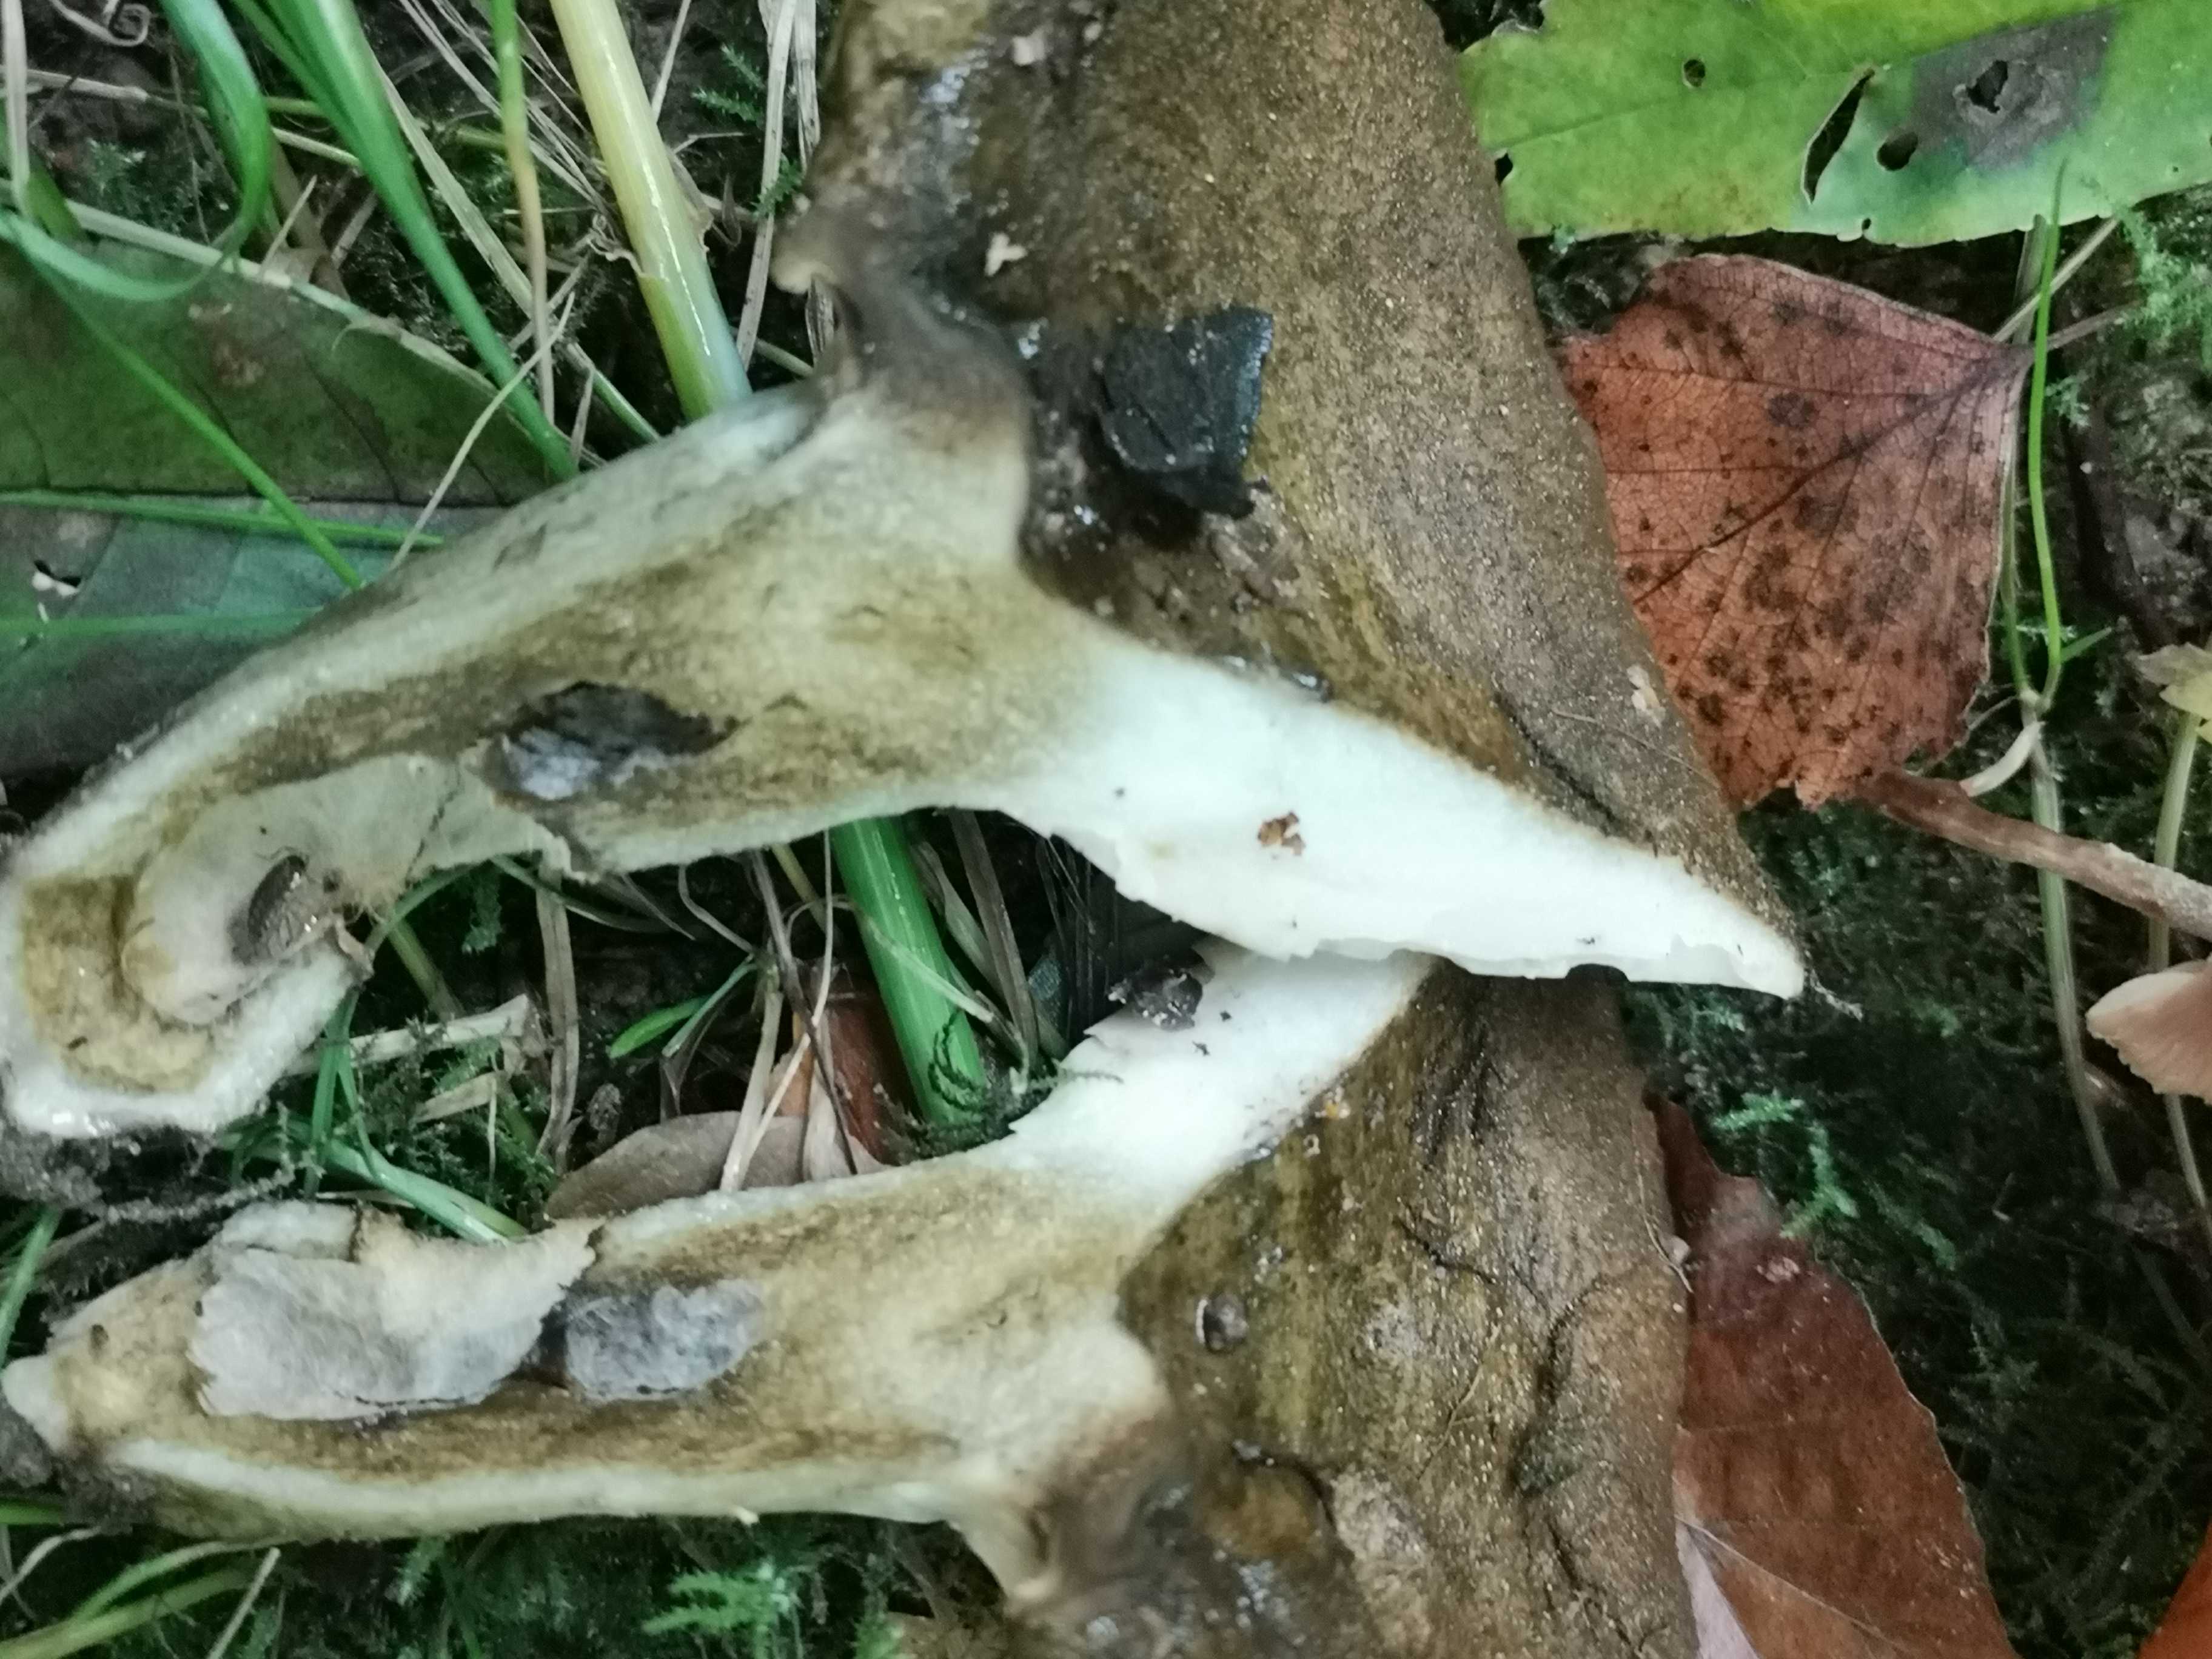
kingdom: Fungi
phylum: Basidiomycota
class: Agaricomycetes
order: Russulales
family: Russulaceae
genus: Lactarius
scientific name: Lactarius necator
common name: manddraber-mælkehat
